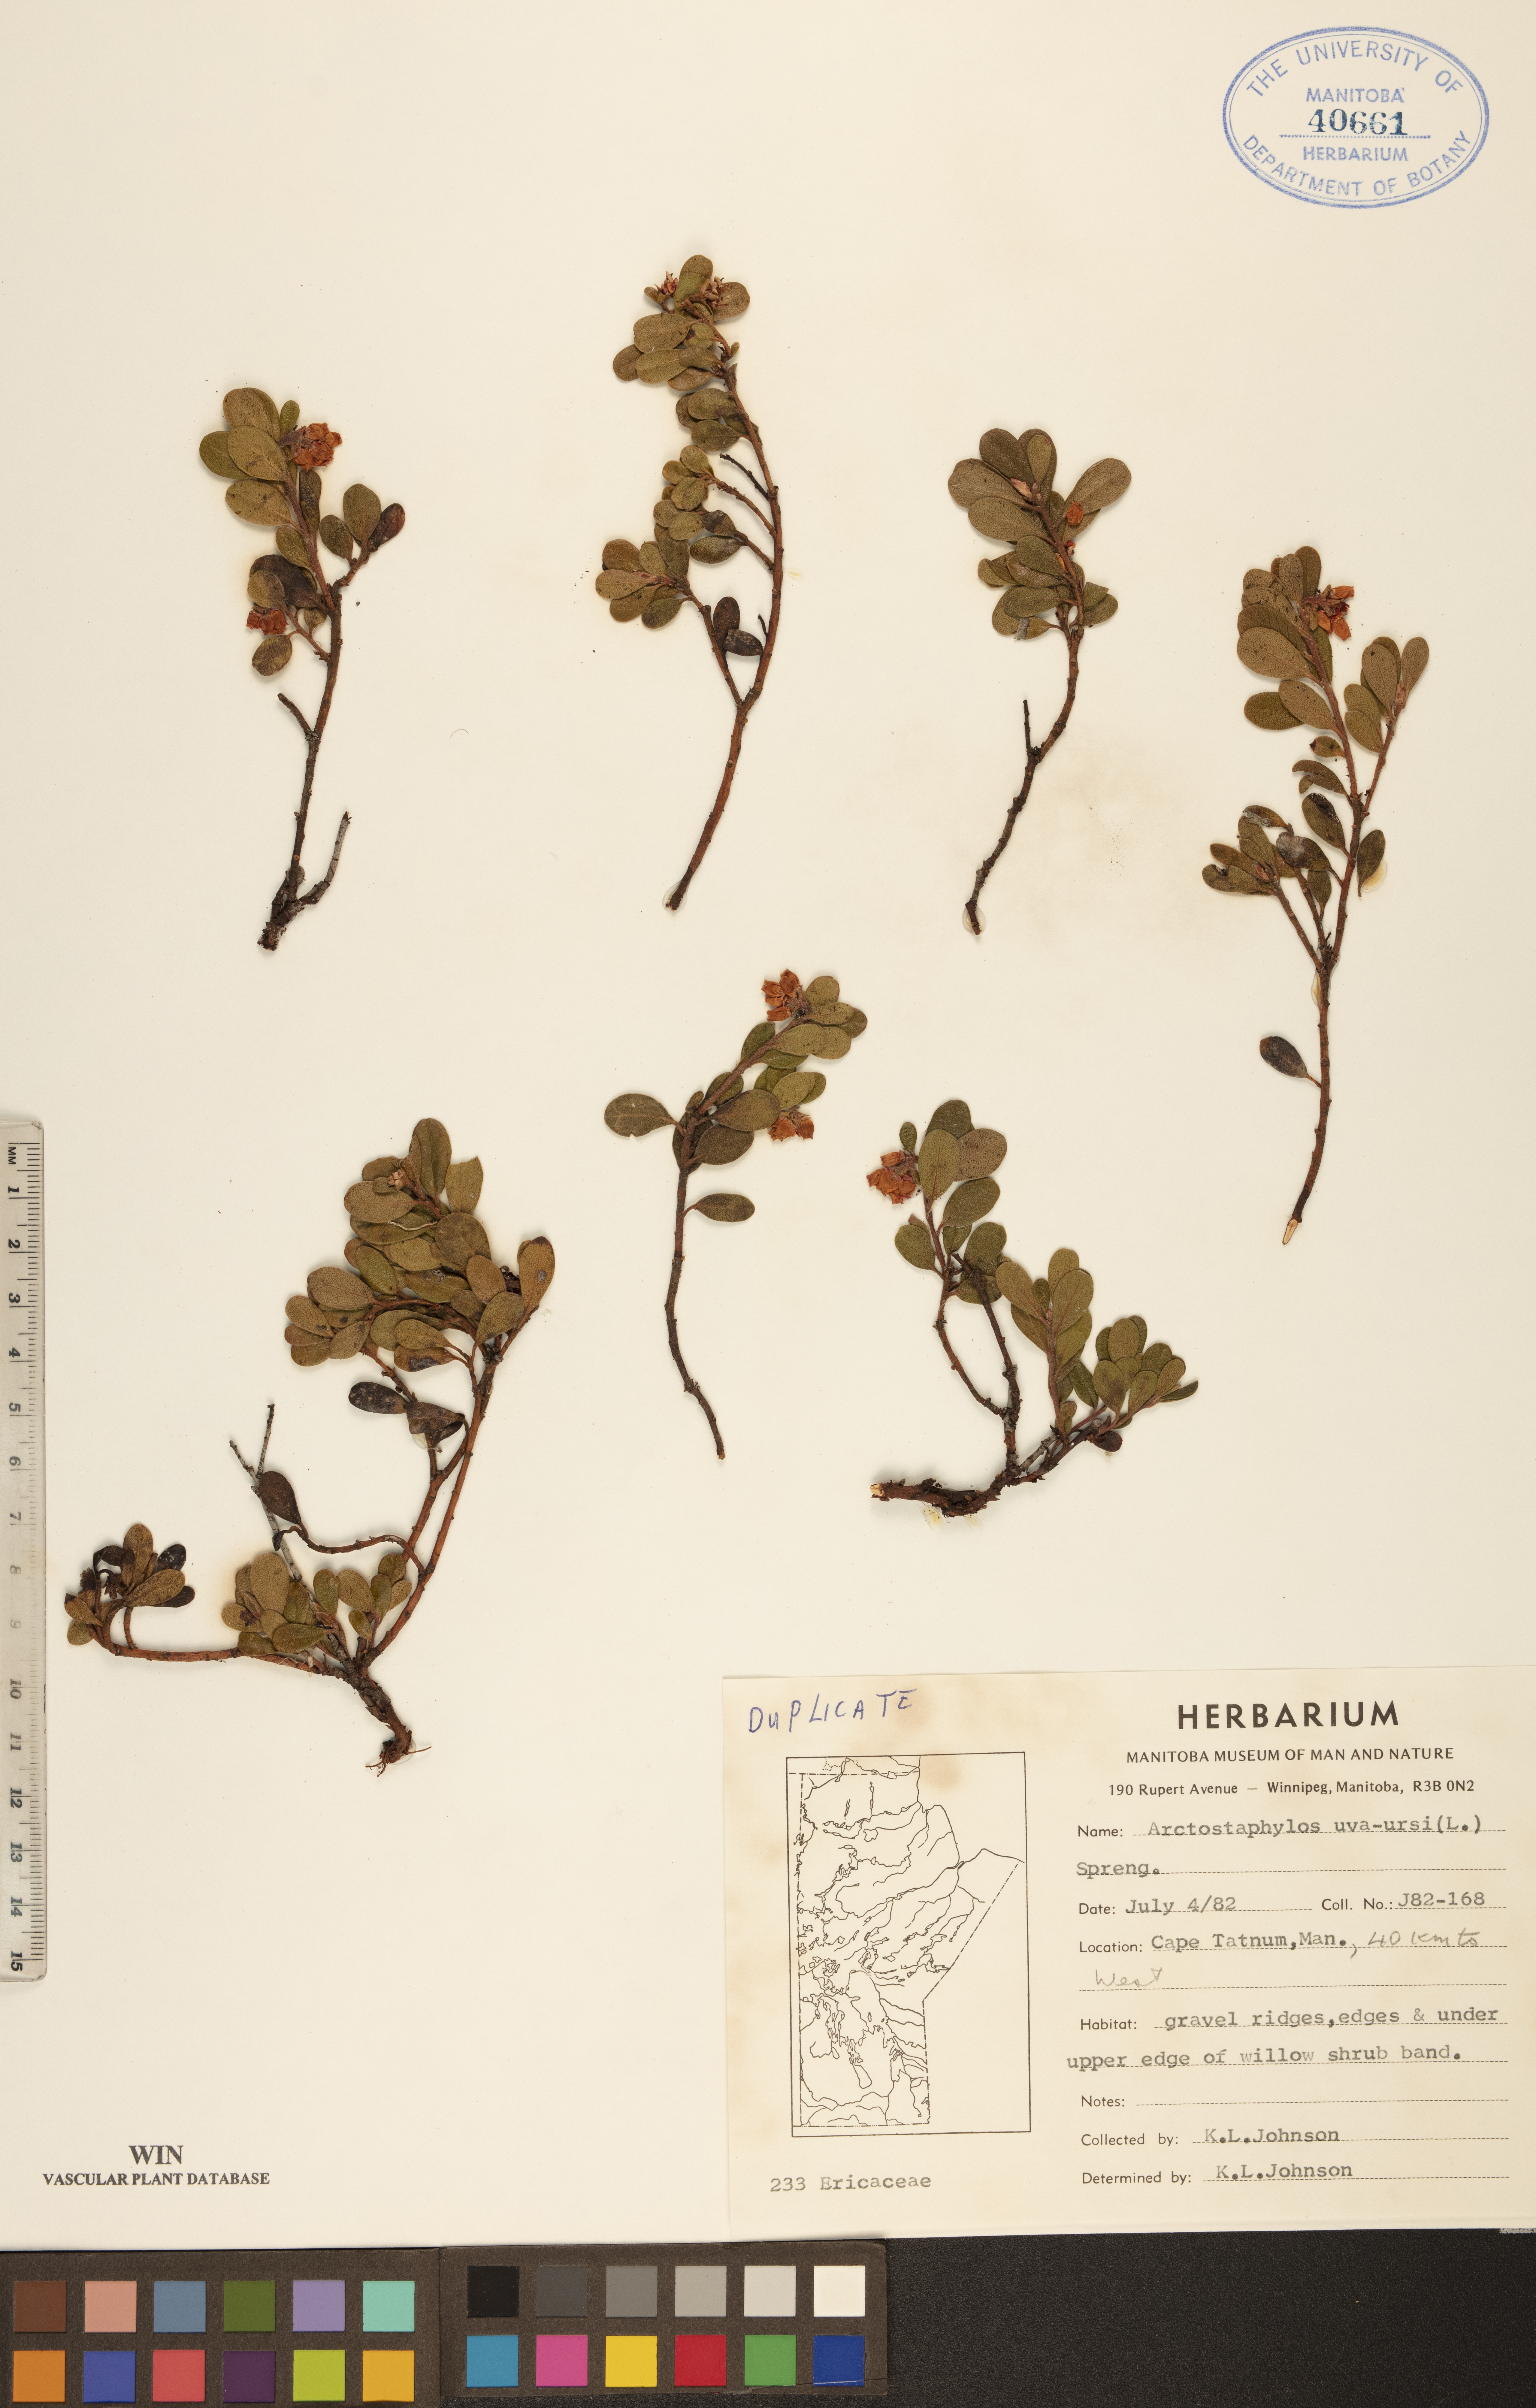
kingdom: Plantae
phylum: Tracheophyta
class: Magnoliopsida
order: Ericales
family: Ericaceae
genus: Arctostaphylos
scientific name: Arctostaphylos uva-ursi
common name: Bearberry
